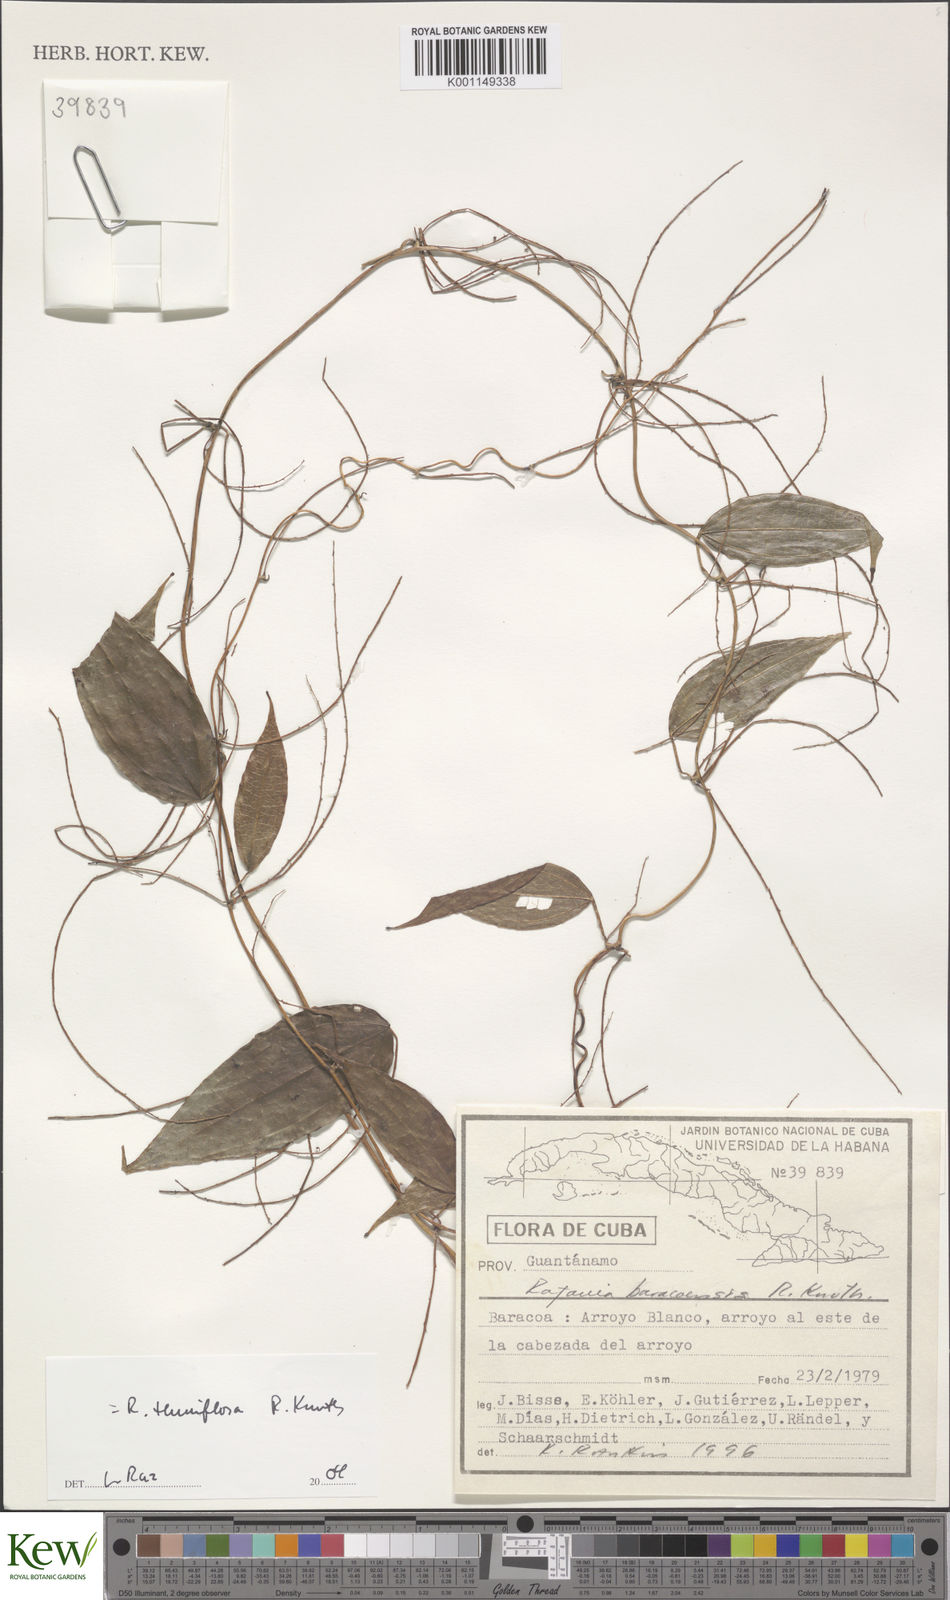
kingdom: Plantae
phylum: Tracheophyta
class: Liliopsida
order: Dioscoreales
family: Dioscoreaceae
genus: Dioscorea
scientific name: Dioscorea bulbifera
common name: Air yam
